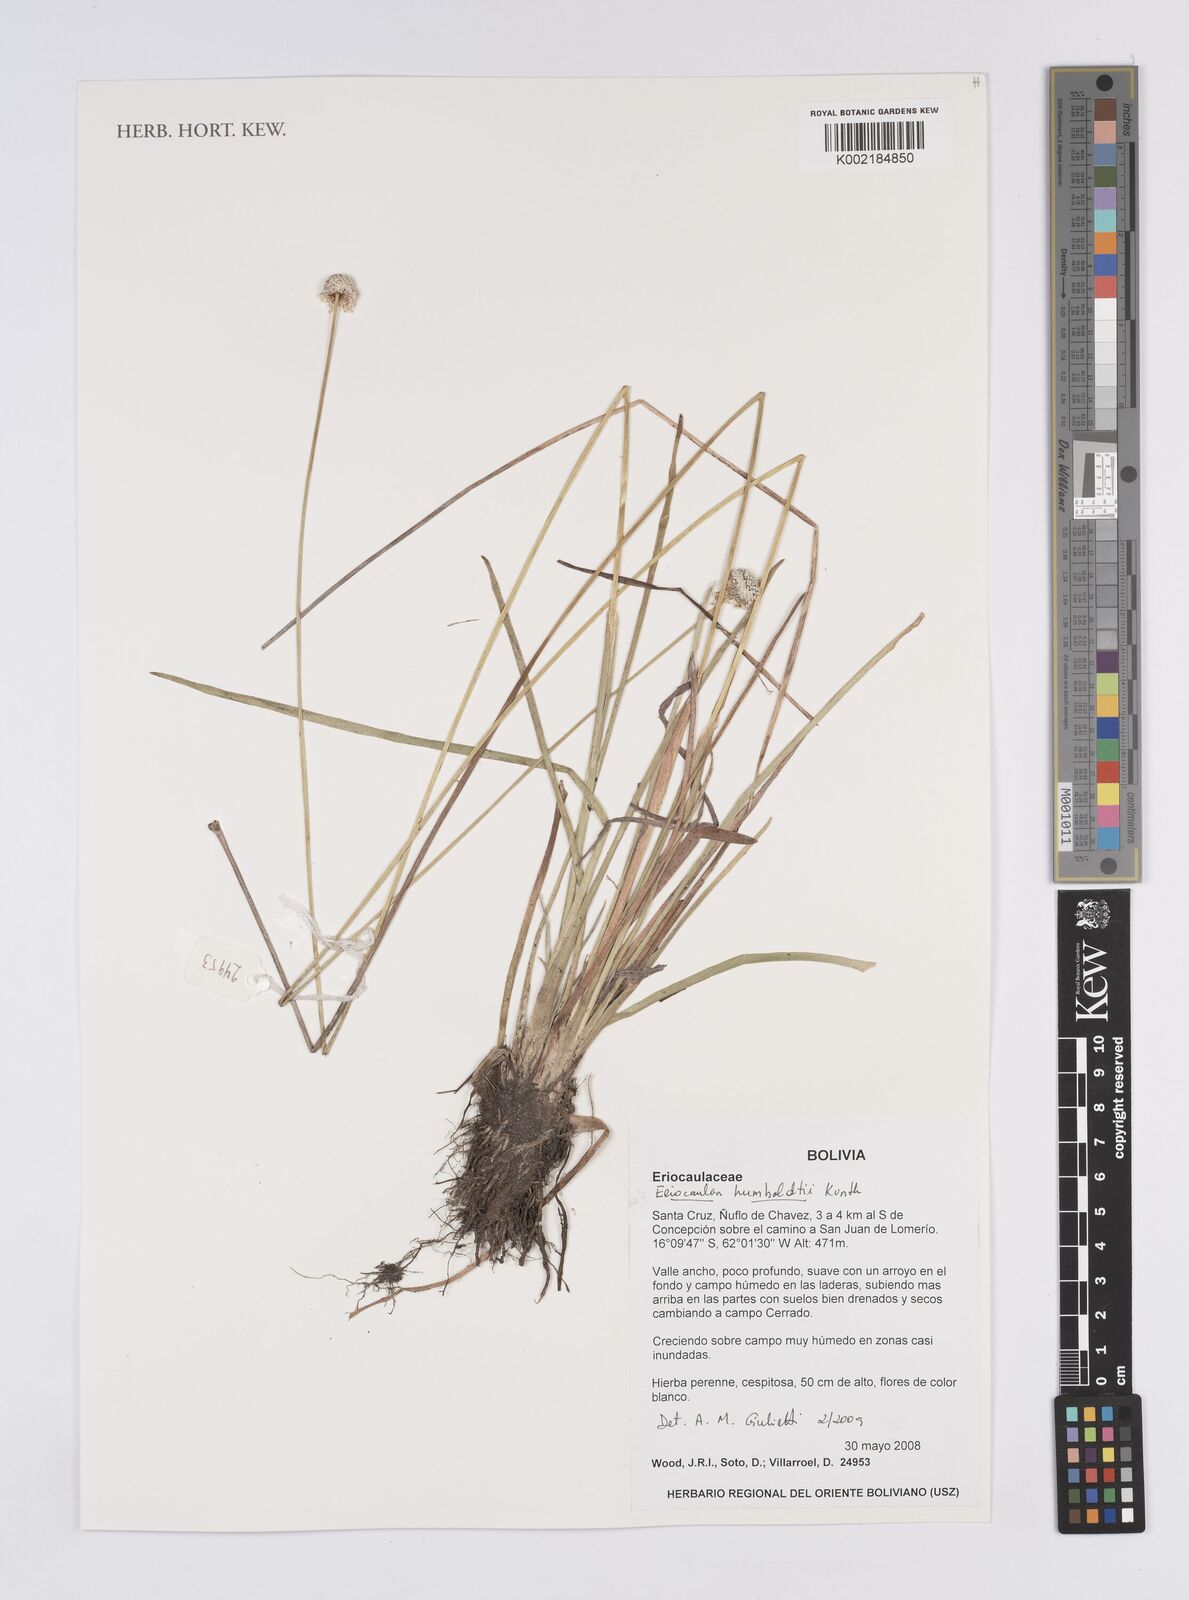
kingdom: Plantae
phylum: Tracheophyta
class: Liliopsida
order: Poales
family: Eriocaulaceae
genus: Eriocaulon
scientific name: Eriocaulon humboldtii
